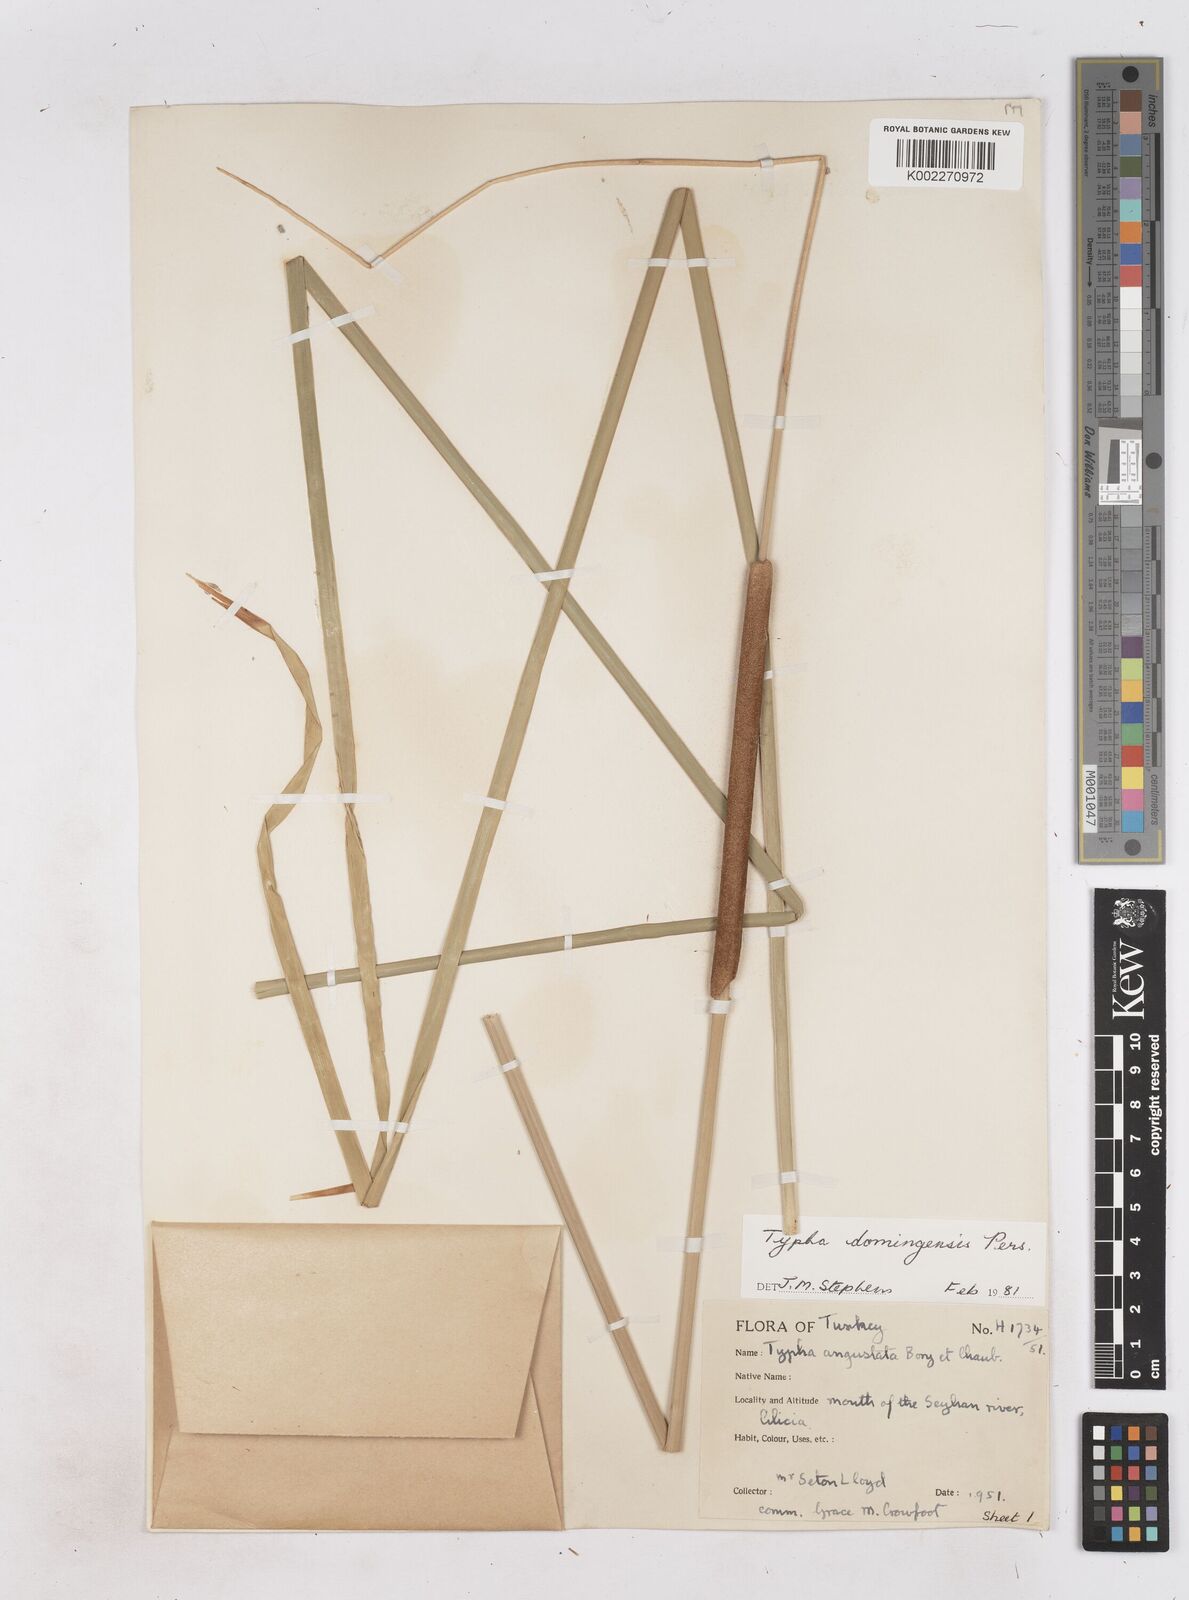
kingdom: Plantae
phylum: Tracheophyta
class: Liliopsida
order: Poales
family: Typhaceae
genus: Typha
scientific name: Typha domingensis
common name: Southern cattail
